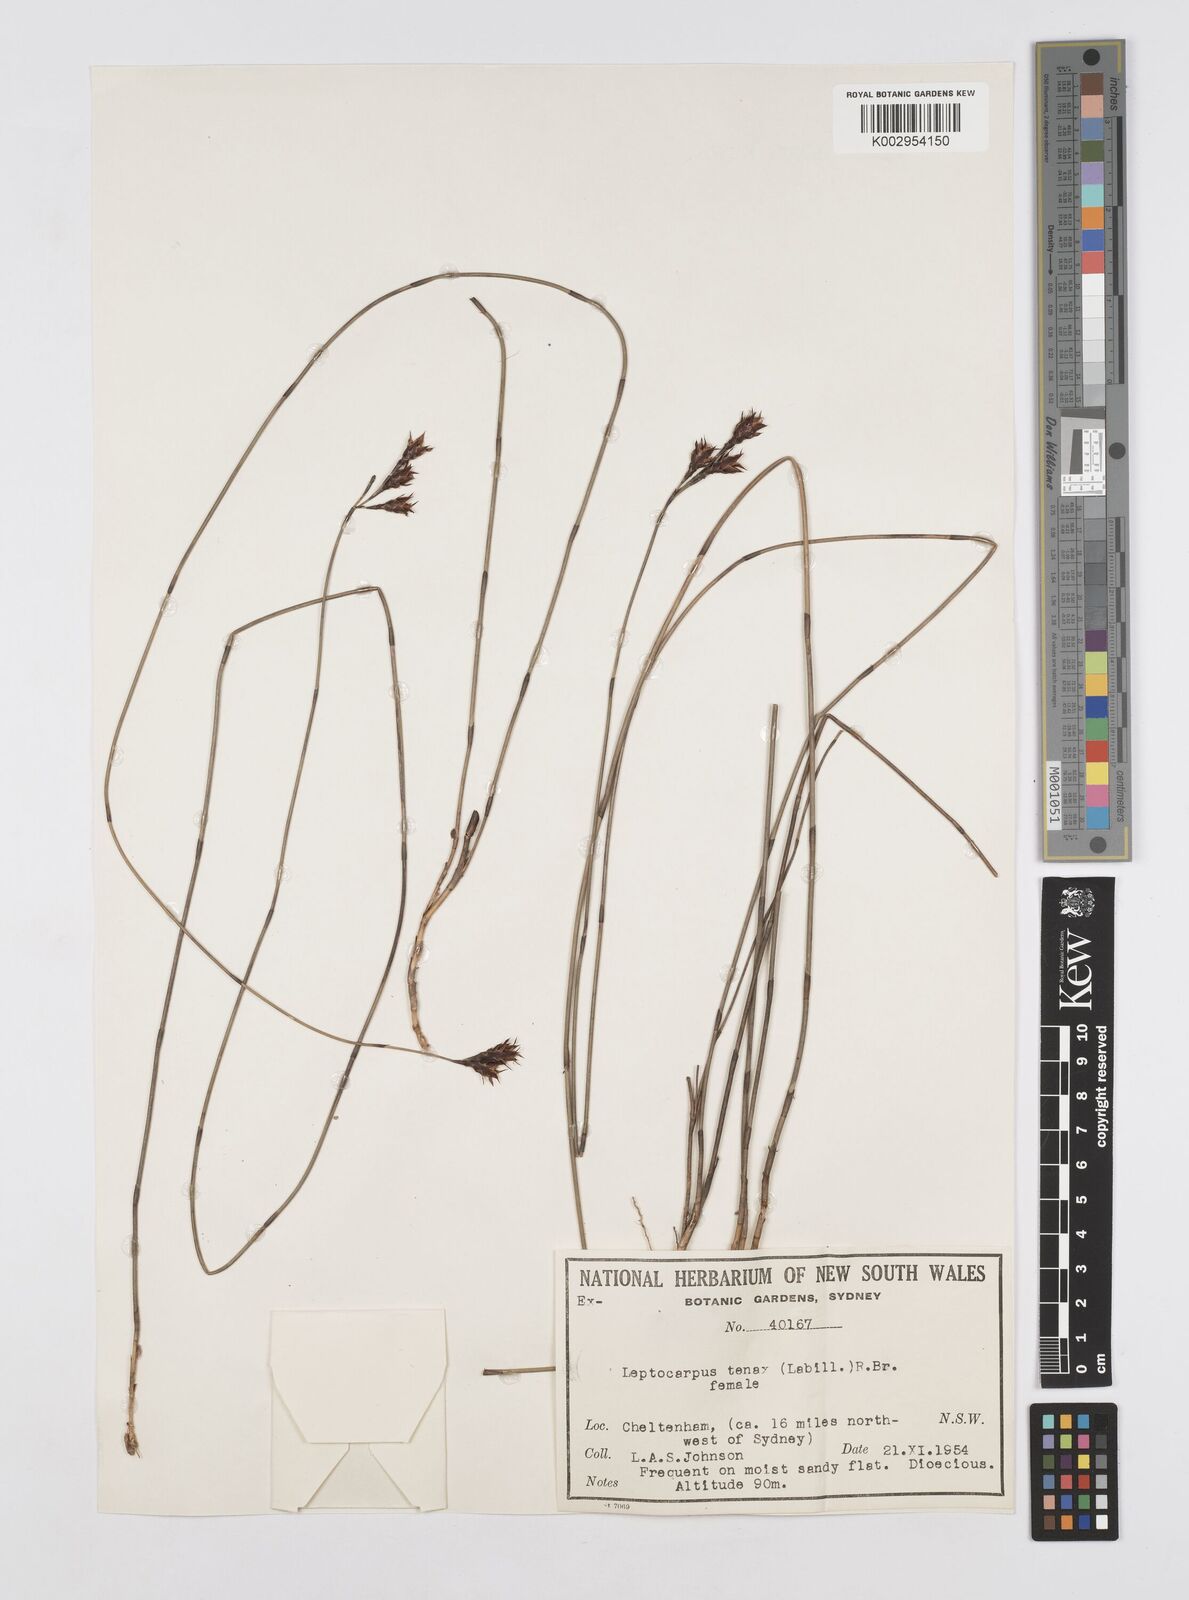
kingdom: Plantae
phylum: Tracheophyta
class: Liliopsida
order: Poales
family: Restionaceae
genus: Leptocarpus
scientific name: Leptocarpus tenax
